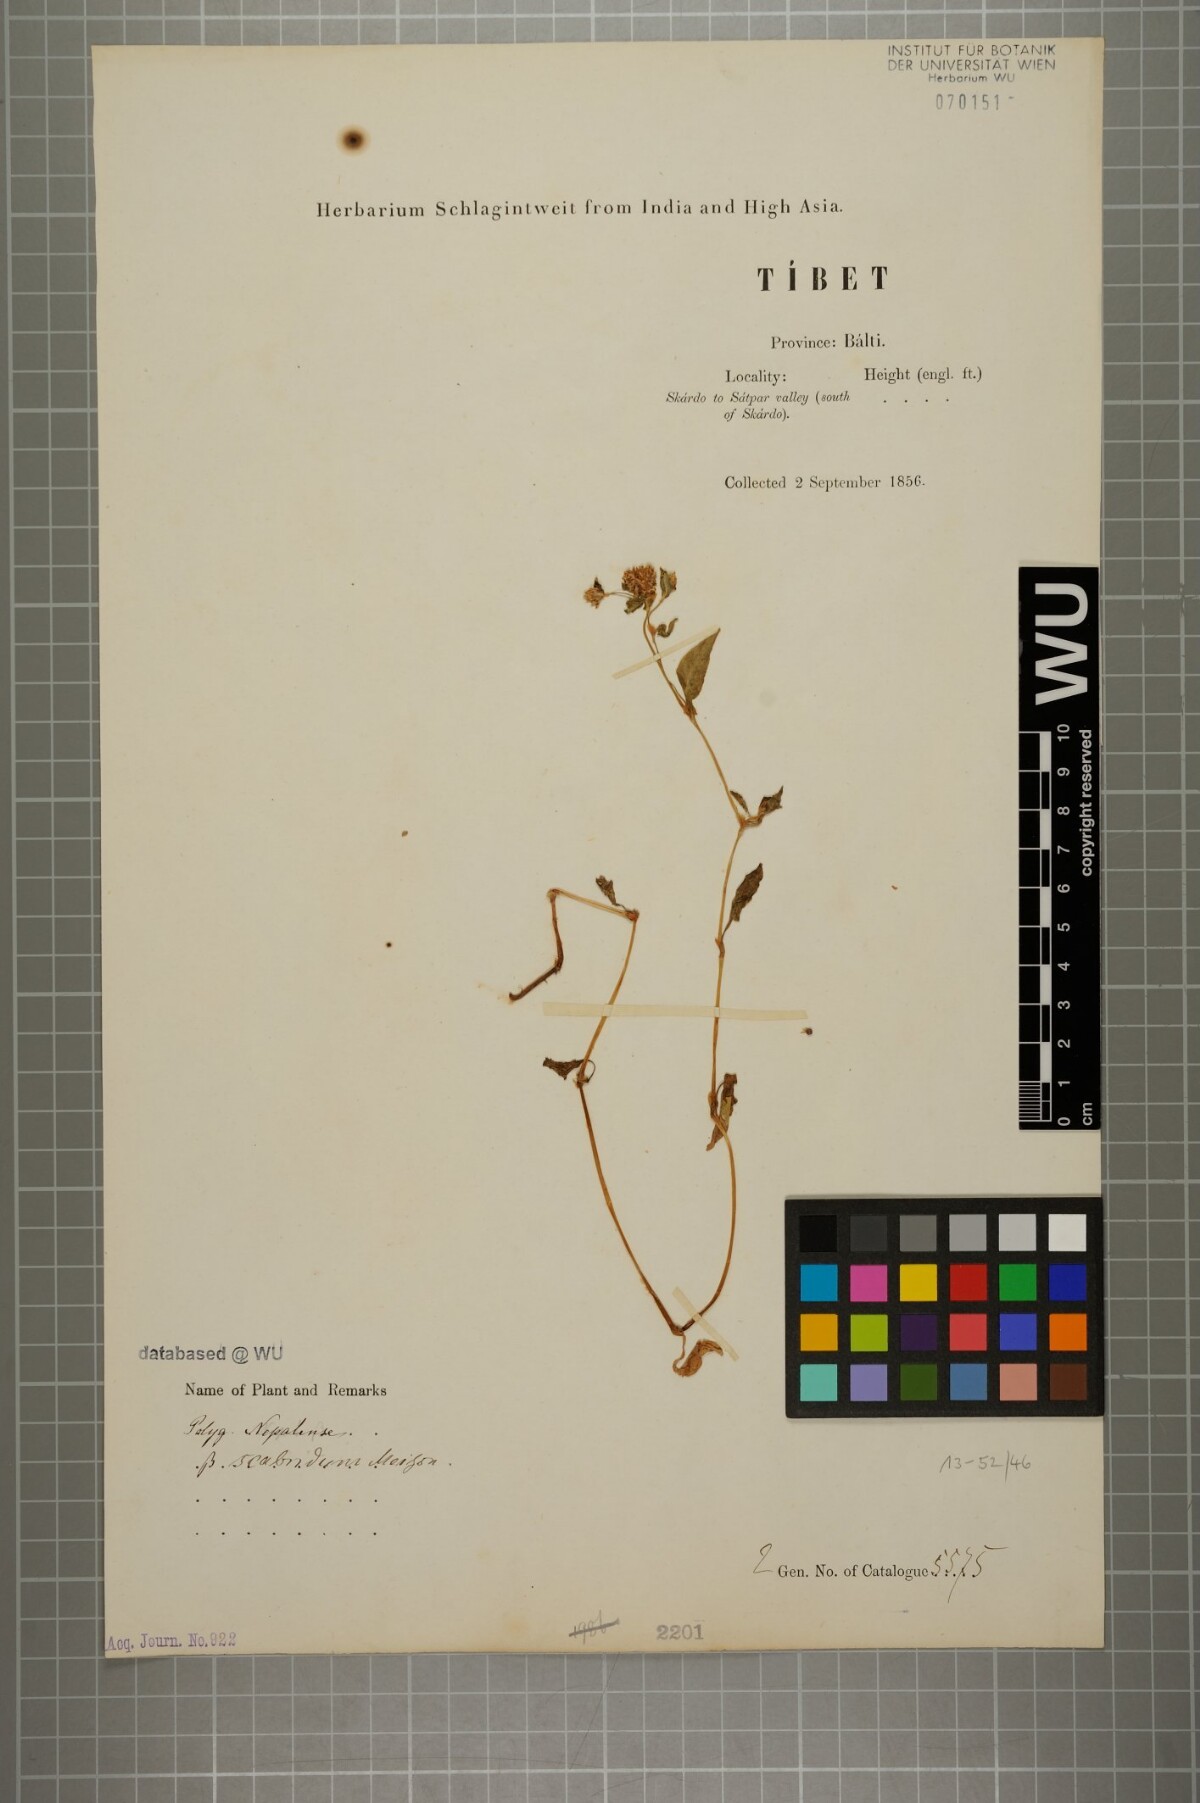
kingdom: Plantae
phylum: Tracheophyta
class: Magnoliopsida
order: Caryophyllales
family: Polygonaceae
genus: Persicaria
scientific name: Persicaria nepalensis
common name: Nepal persicaria
